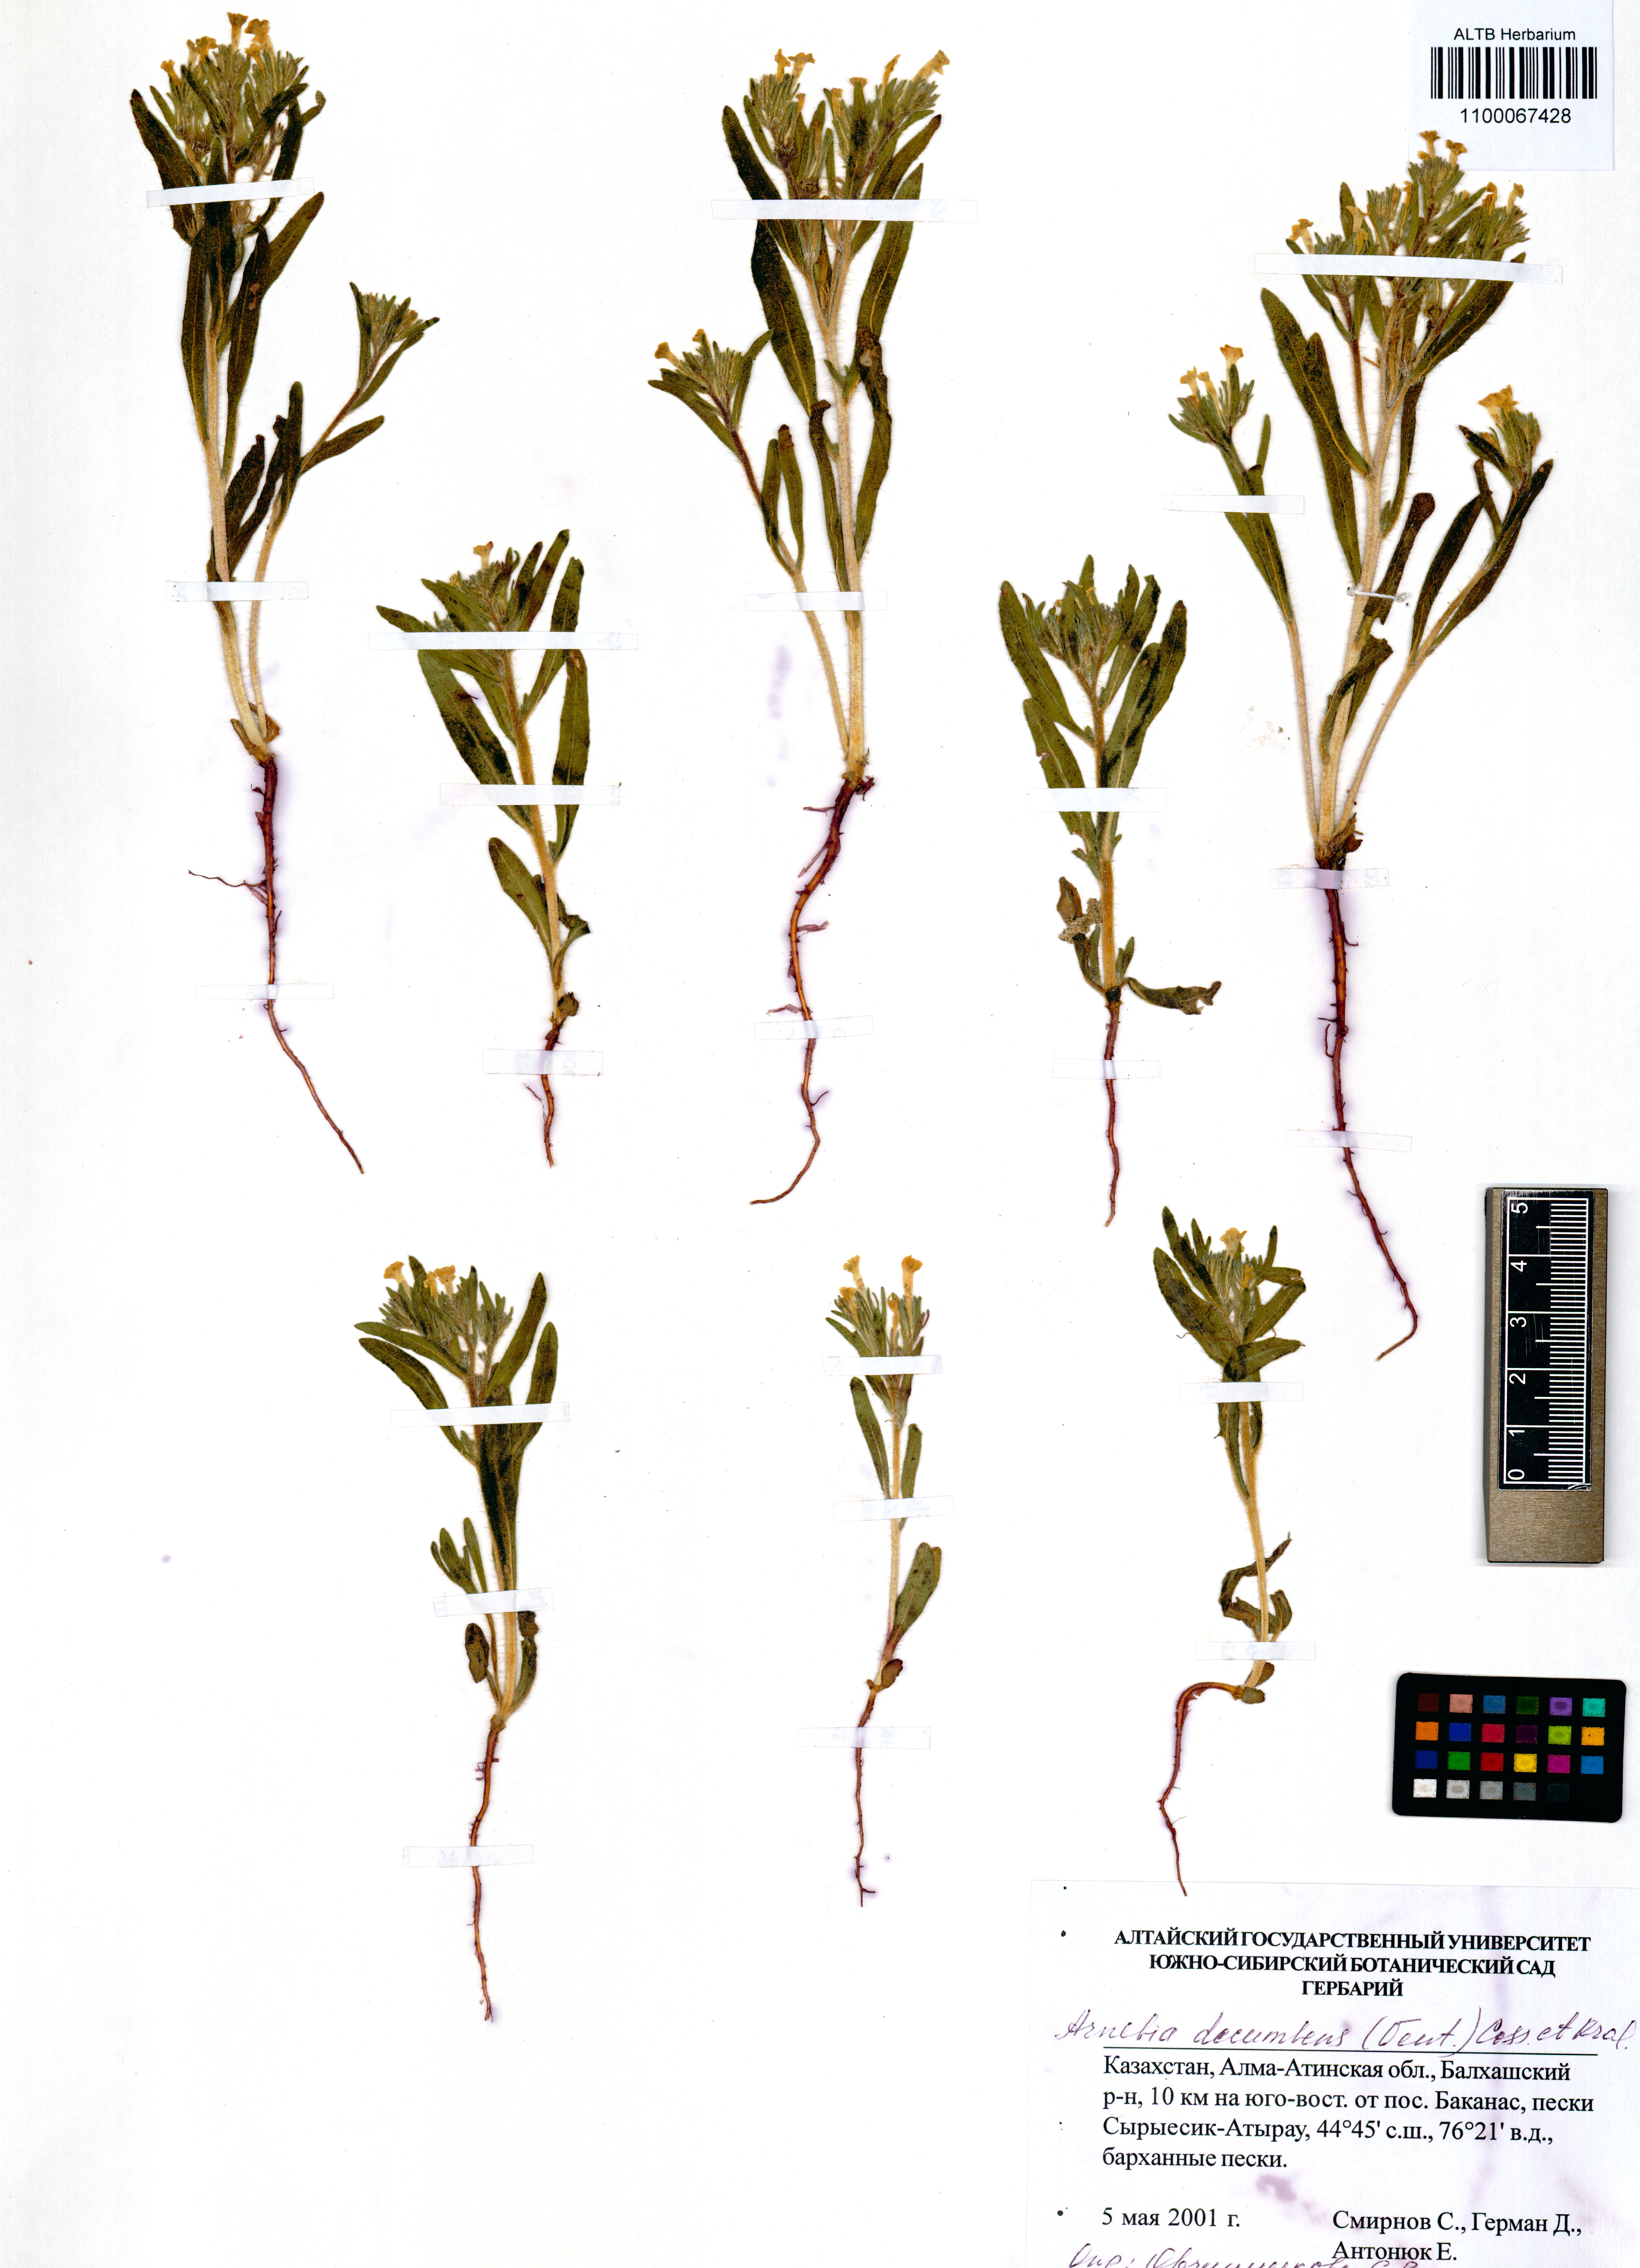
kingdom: Plantae
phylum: Tracheophyta
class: Magnoliopsida
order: Boraginales
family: Boraginaceae
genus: Arnebia
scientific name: Arnebia decumbens
